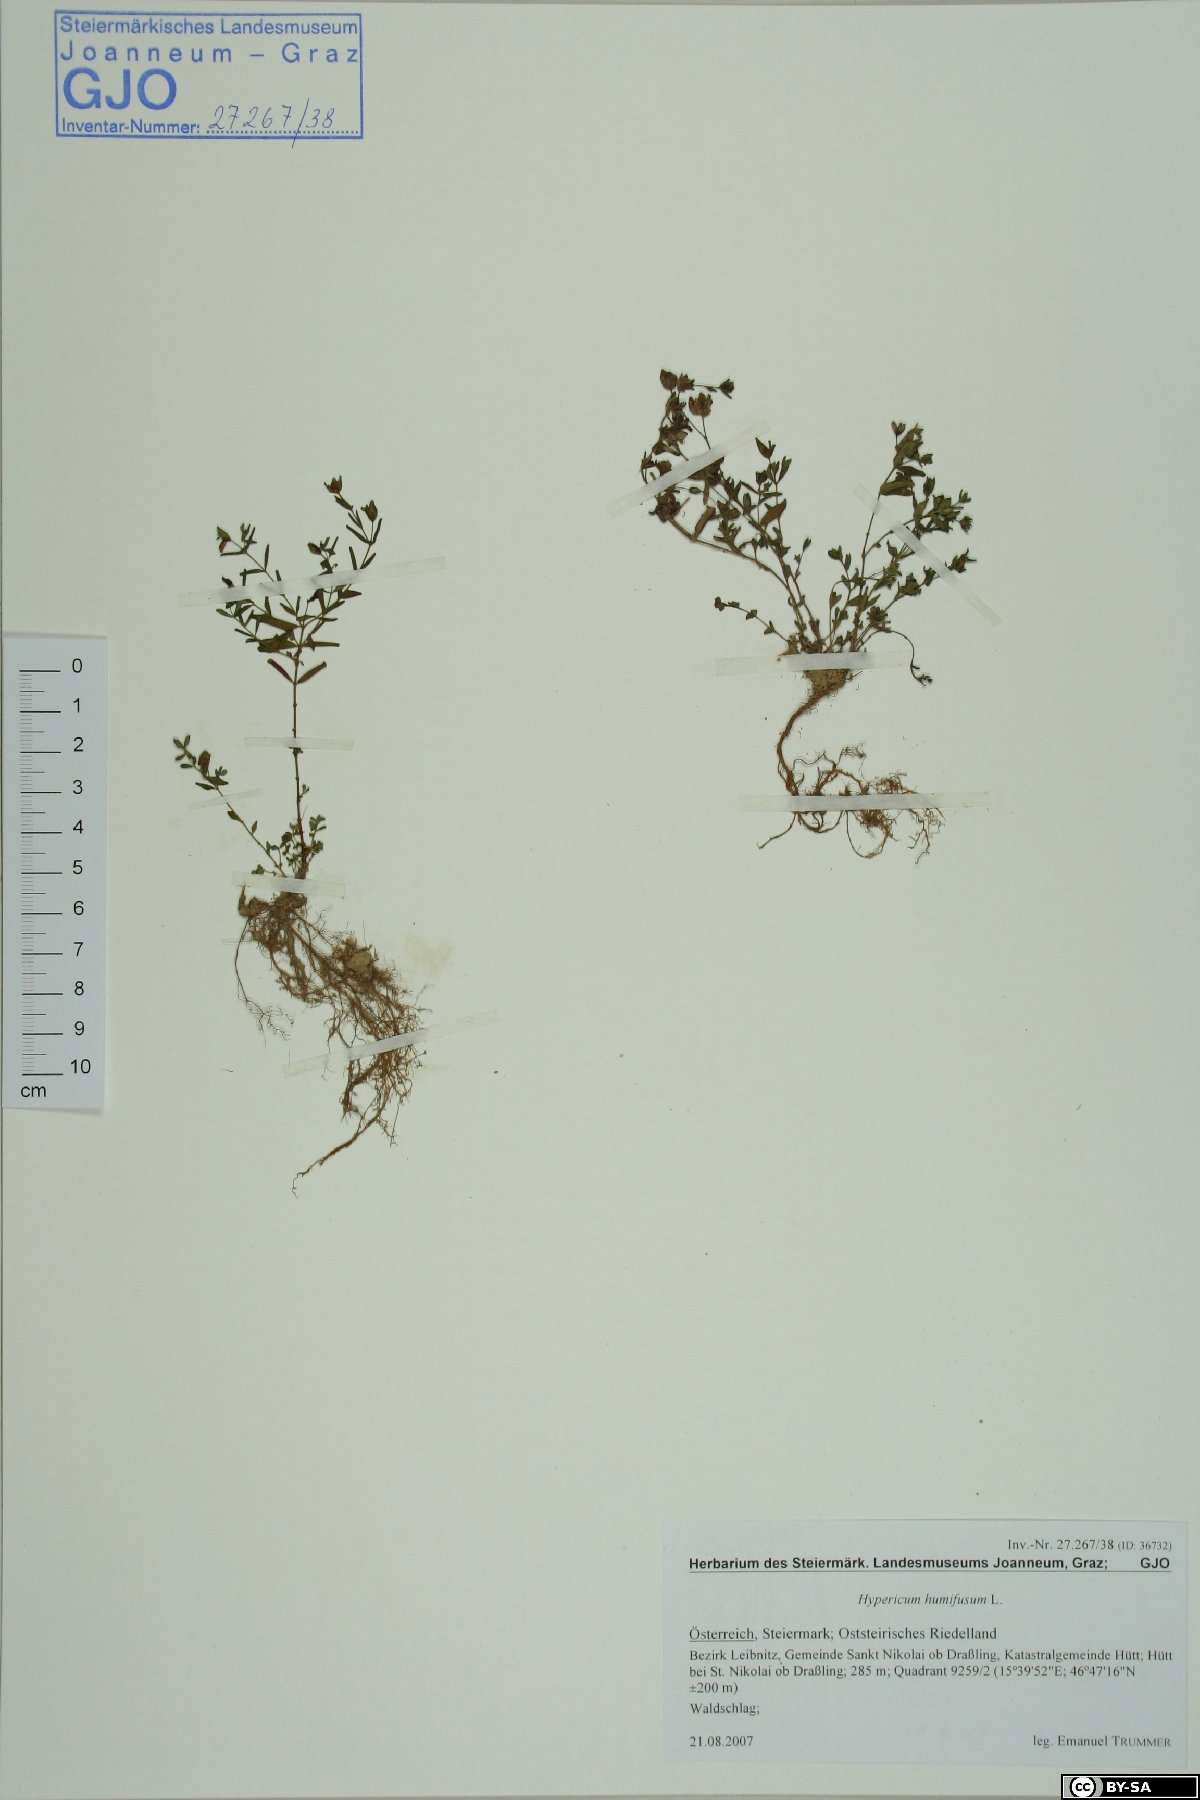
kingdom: Plantae
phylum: Tracheophyta
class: Magnoliopsida
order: Malpighiales
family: Hypericaceae
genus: Hypericum
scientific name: Hypericum humifusum
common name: Trailing st. john's-wort
